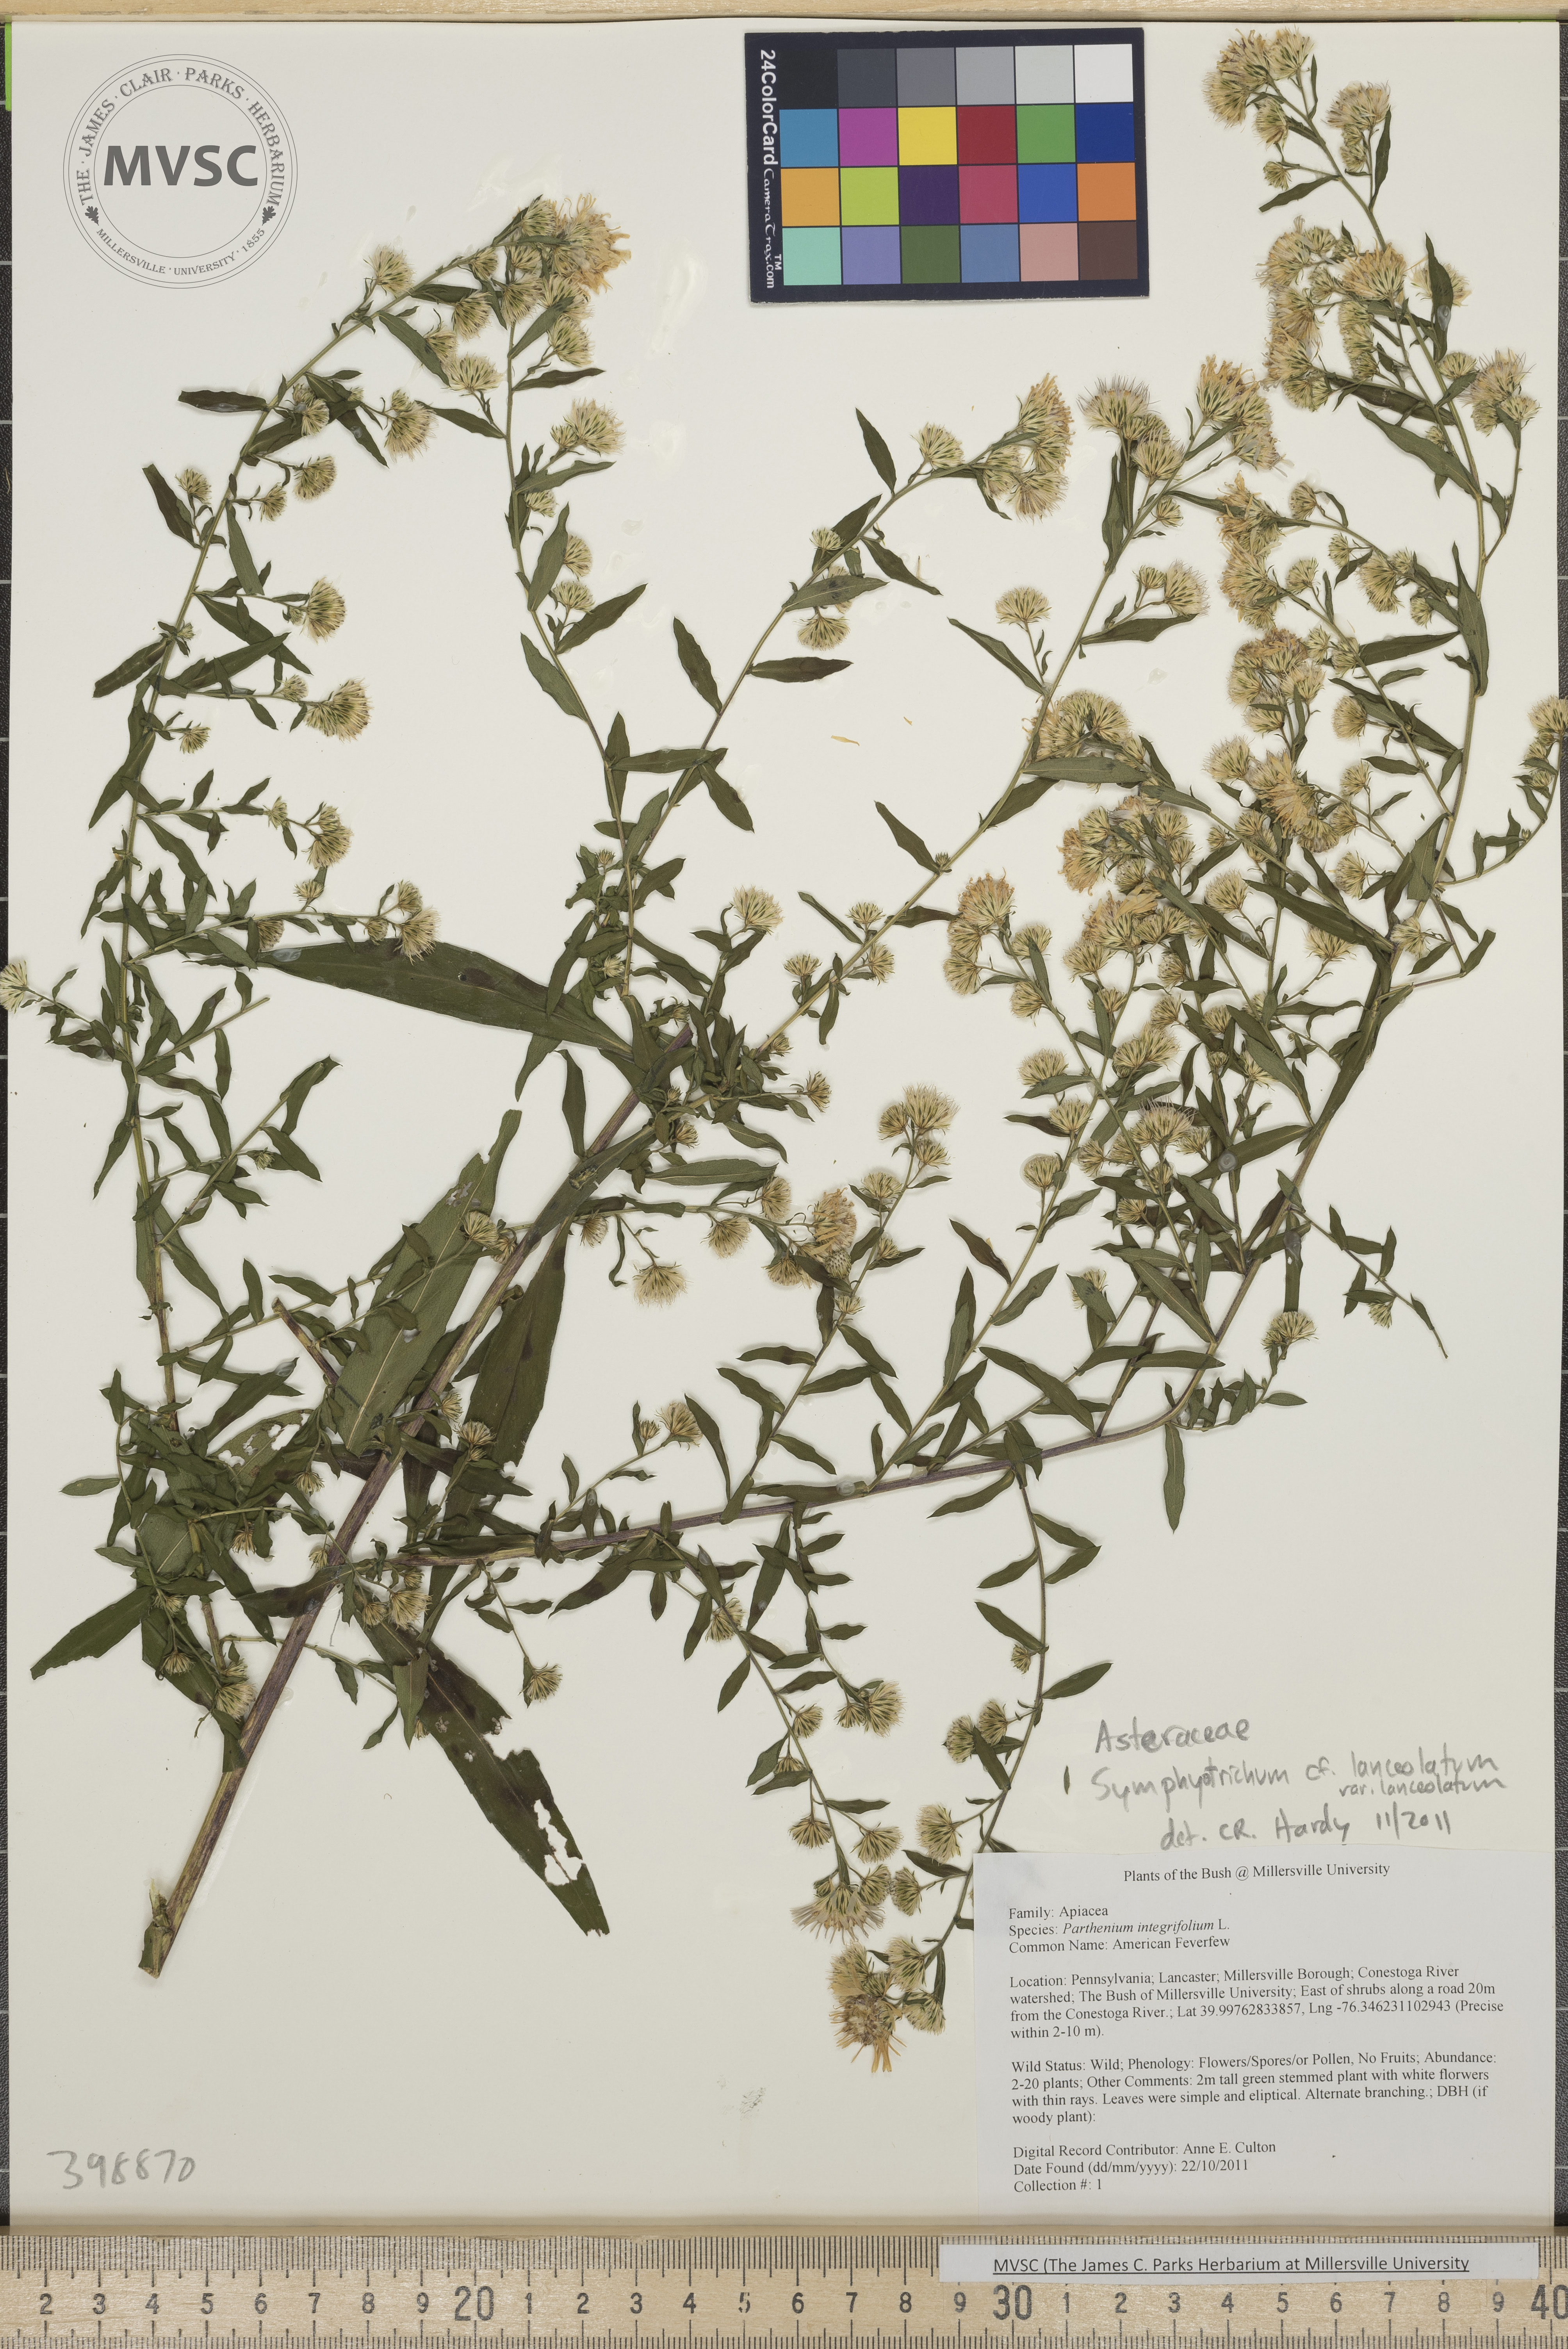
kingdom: Plantae
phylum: Tracheophyta
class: Magnoliopsida
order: Asterales
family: Asteraceae
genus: Symphyotrichum
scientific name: Symphyotrichum lanceolatum
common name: Smooth blue aster
